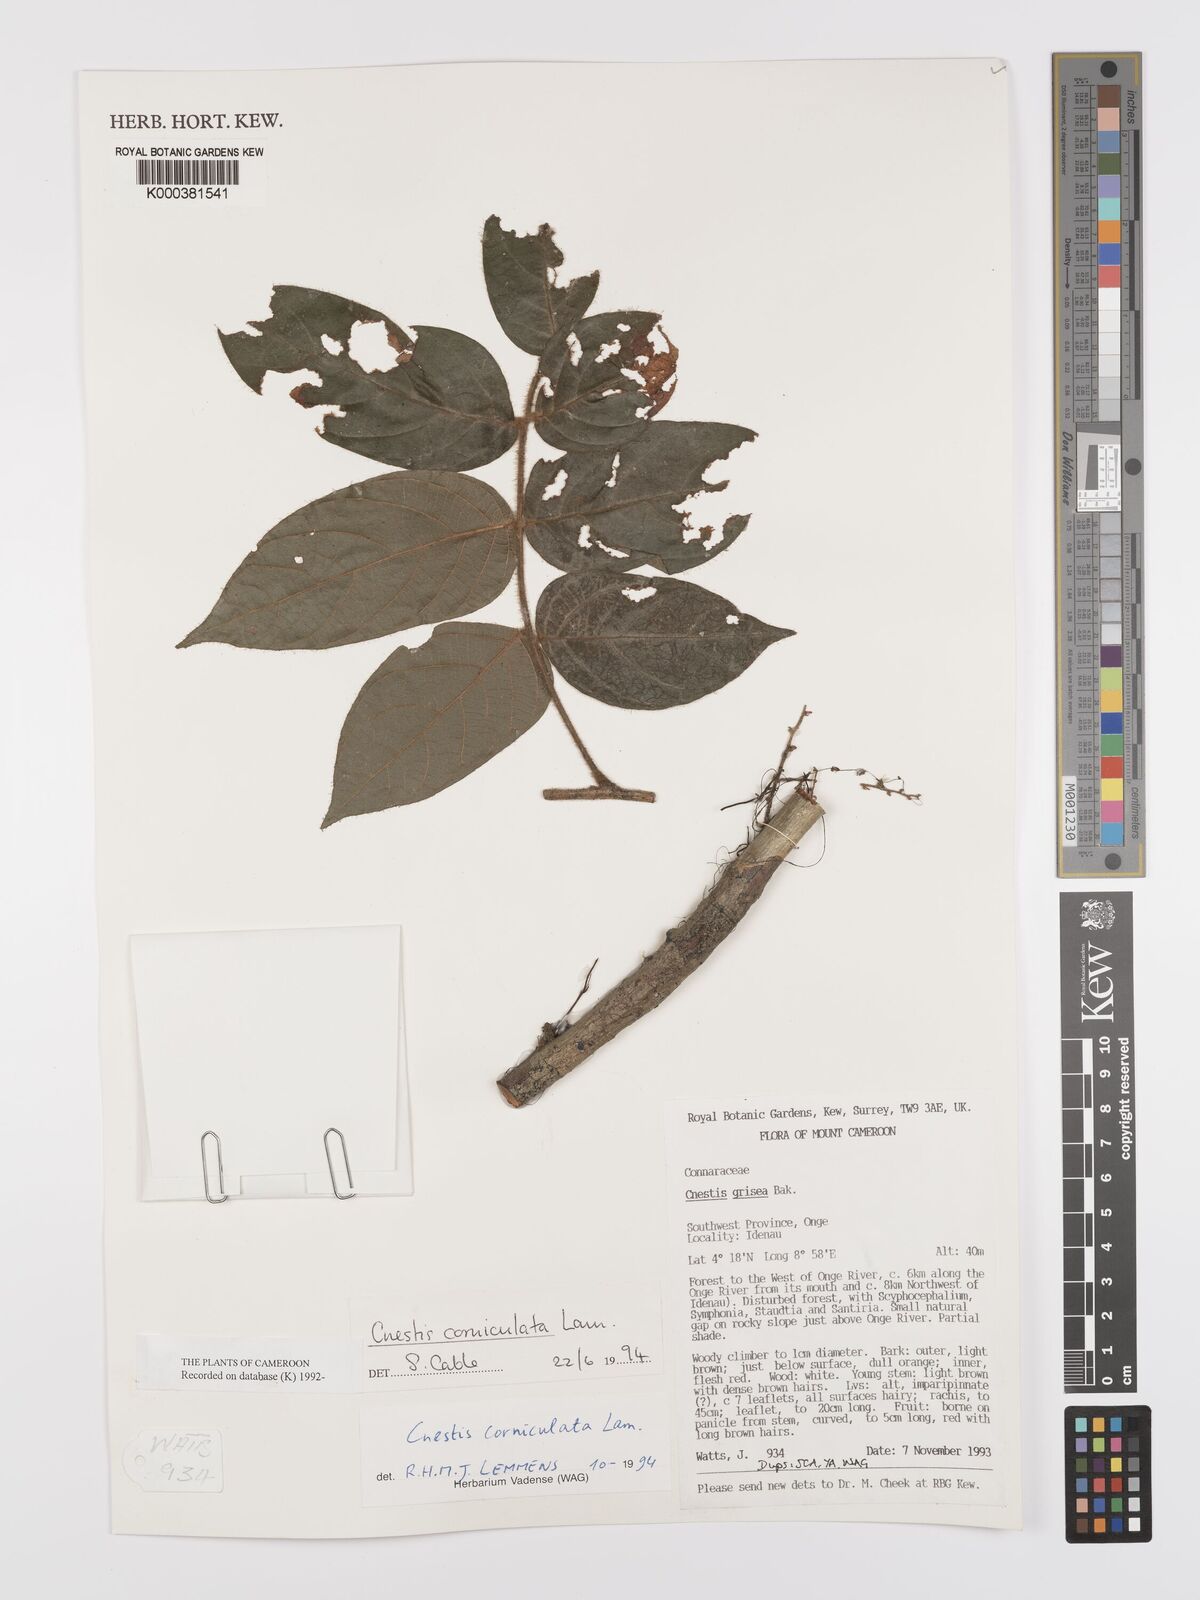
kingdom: Plantae
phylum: Tracheophyta
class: Magnoliopsida
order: Oxalidales
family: Connaraceae
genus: Cnestis
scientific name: Cnestis corniculata
